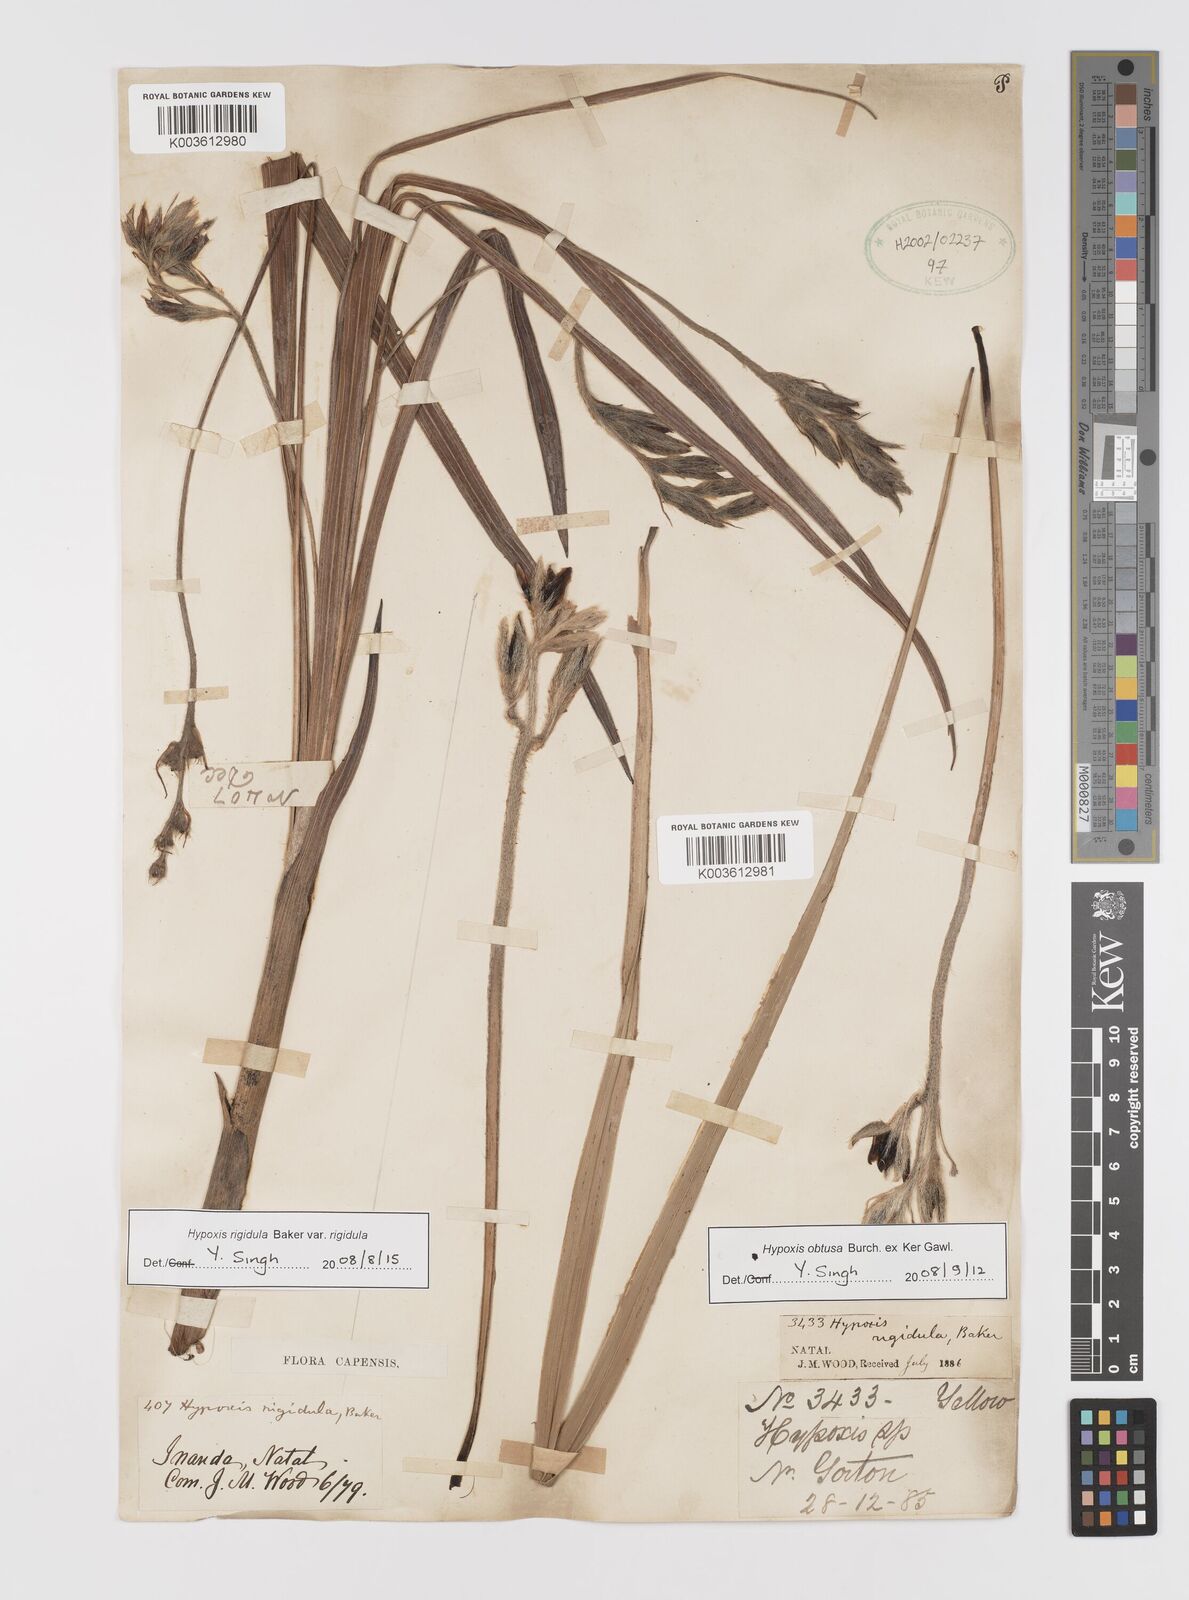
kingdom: Plantae
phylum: Tracheophyta
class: Liliopsida
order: Asparagales
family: Hypoxidaceae
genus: Hypoxis
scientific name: Hypoxis rigidula
